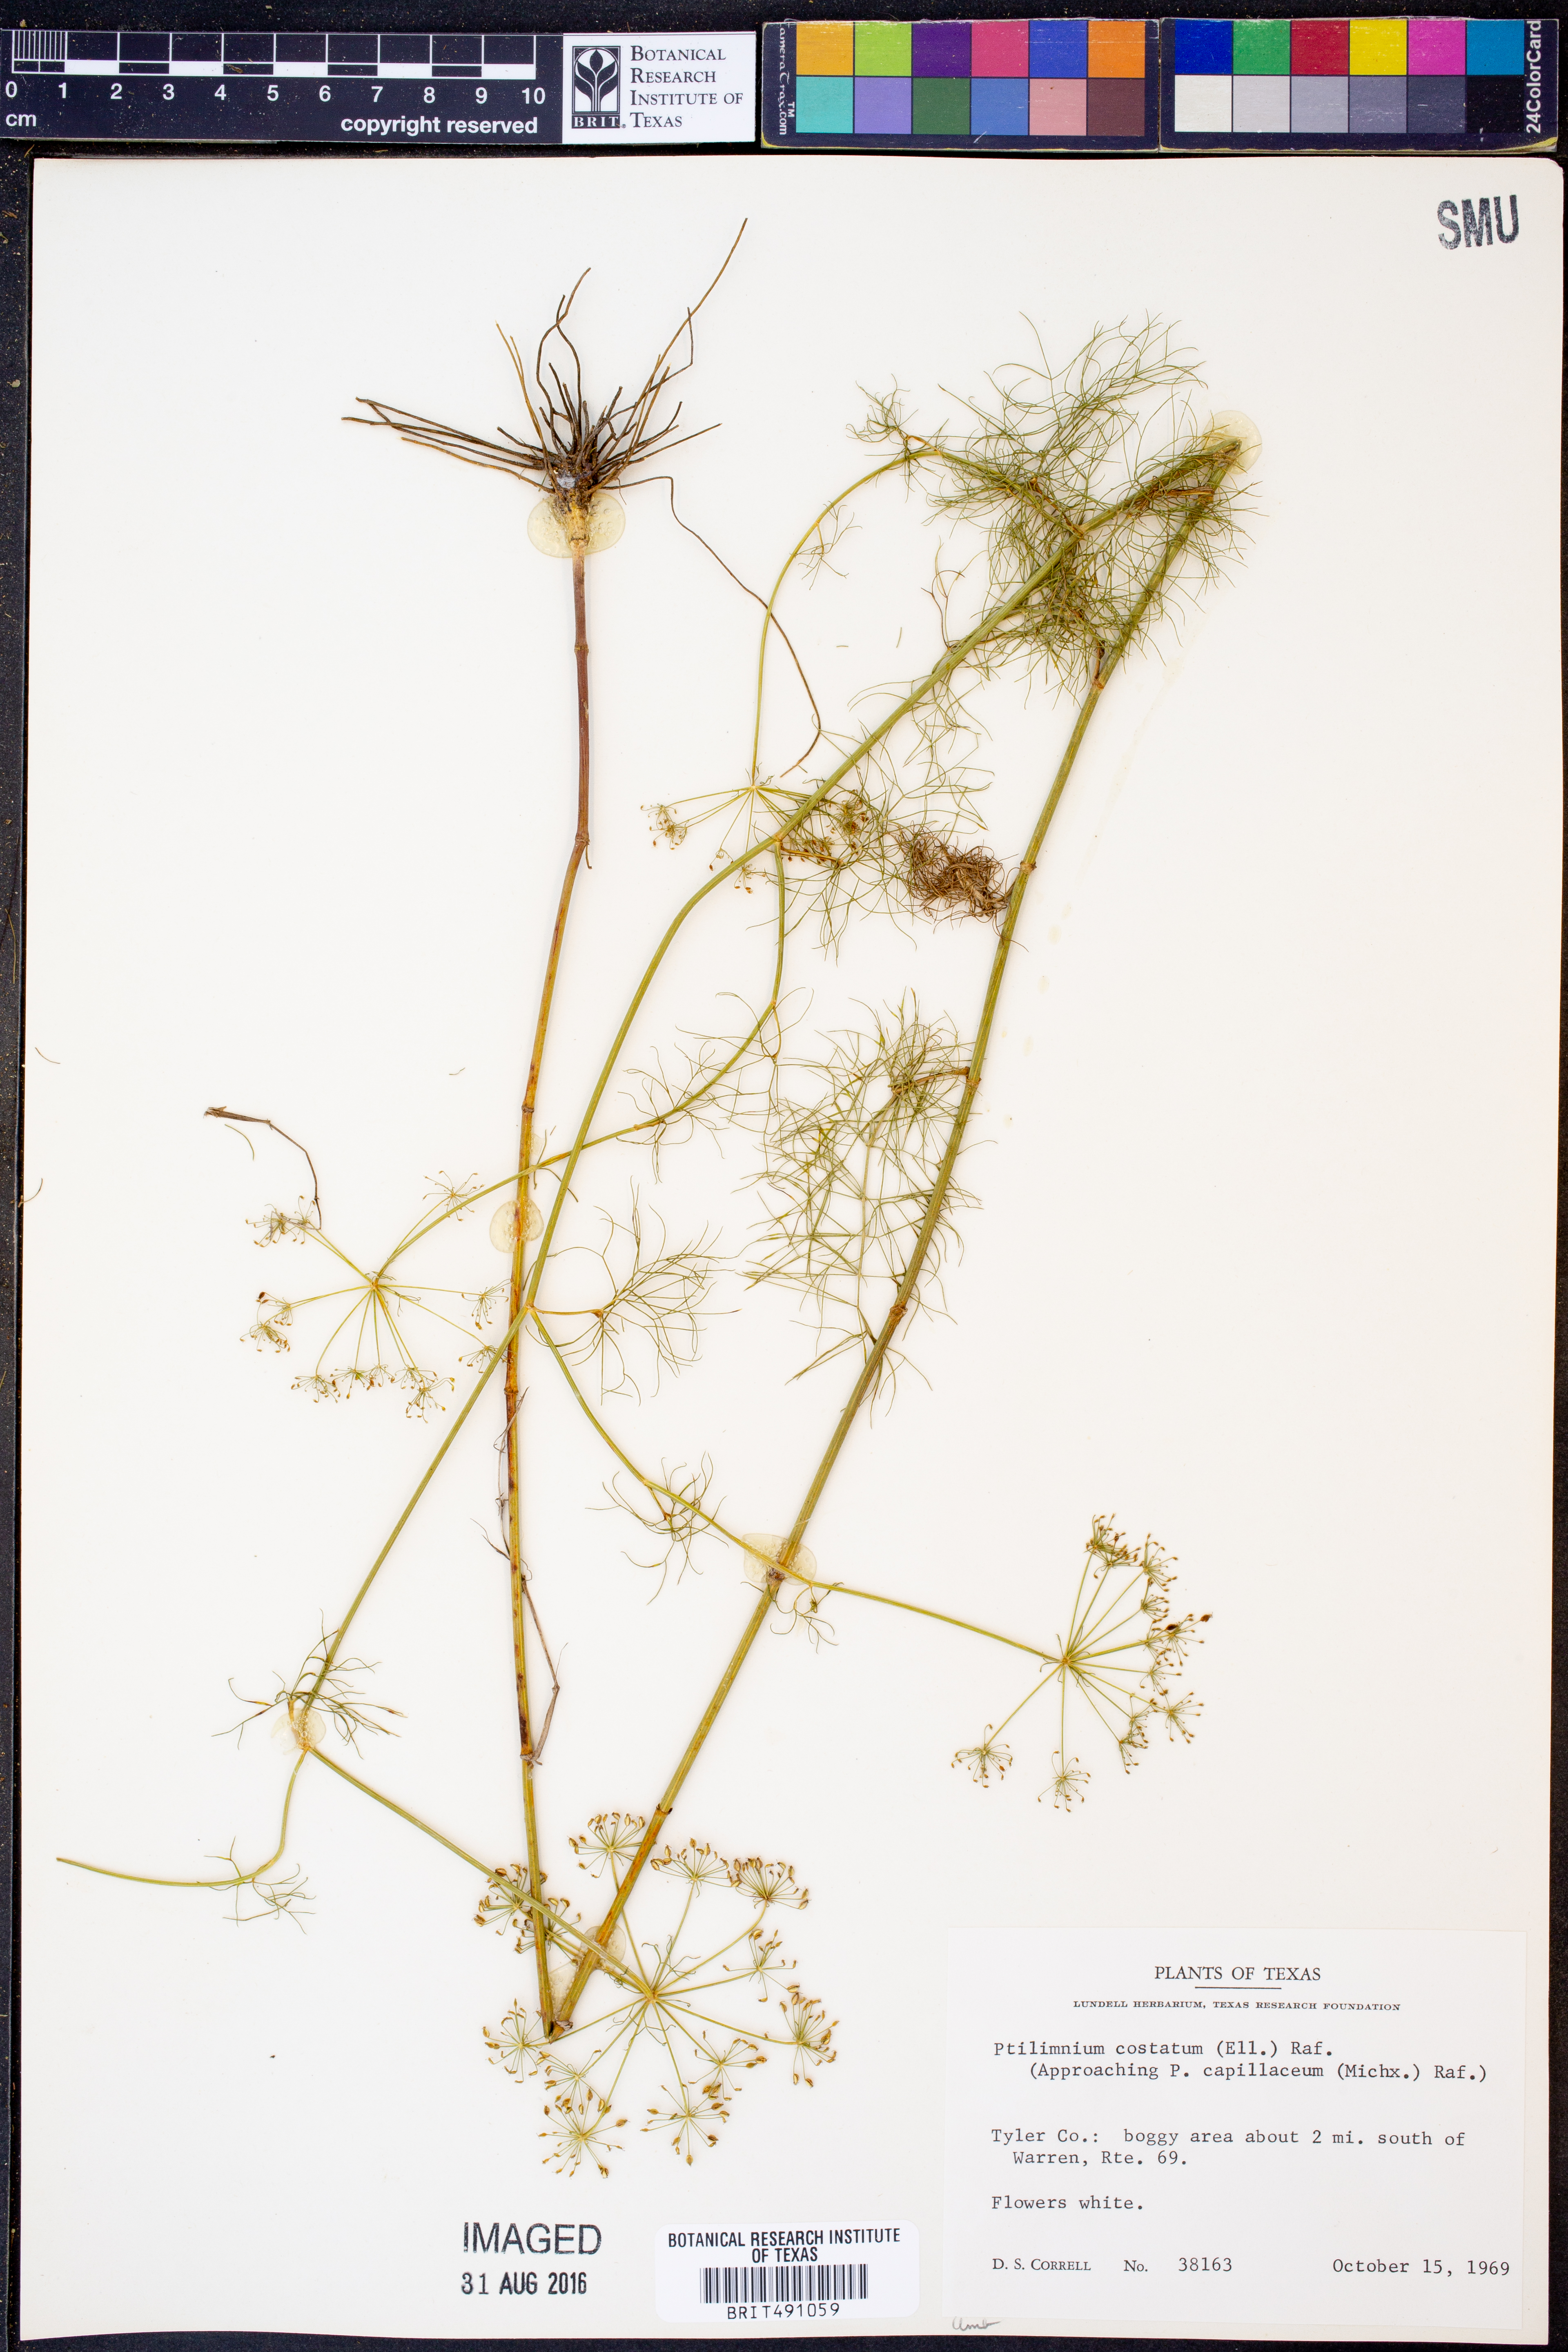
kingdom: Plantae
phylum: Tracheophyta
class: Magnoliopsida
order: Apiales
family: Apiaceae
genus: Ptilimnium
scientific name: Ptilimnium costatum
